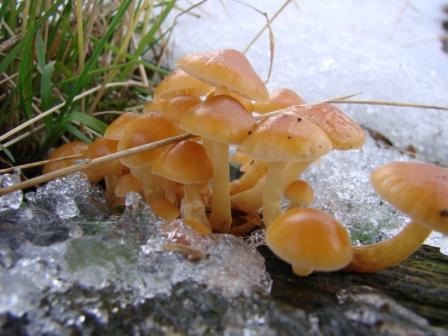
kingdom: Fungi
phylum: Basidiomycota
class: Agaricomycetes
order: Agaricales
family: Physalacriaceae
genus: Flammulina
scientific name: Flammulina velutipes
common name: gul fløjlsfod
